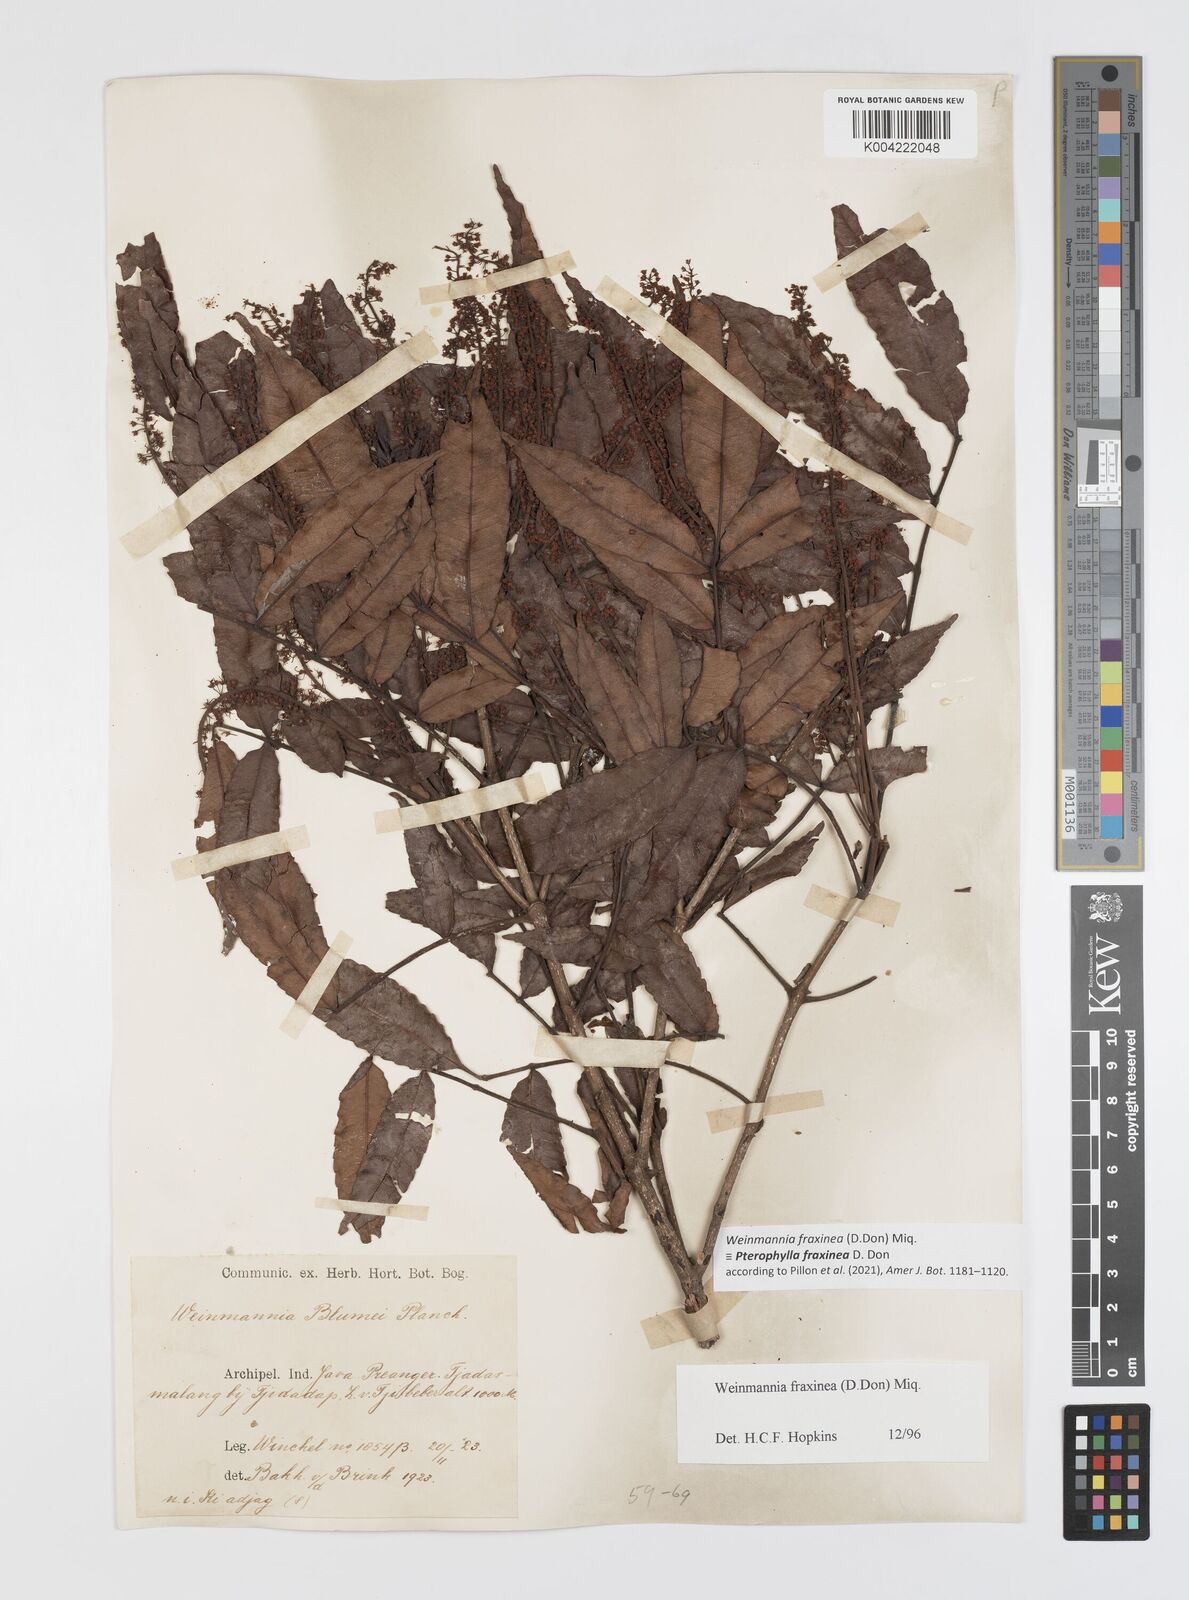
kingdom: Plantae
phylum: Tracheophyta
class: Magnoliopsida
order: Oxalidales
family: Cunoniaceae
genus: Pterophylla
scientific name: Pterophylla fraxinea
